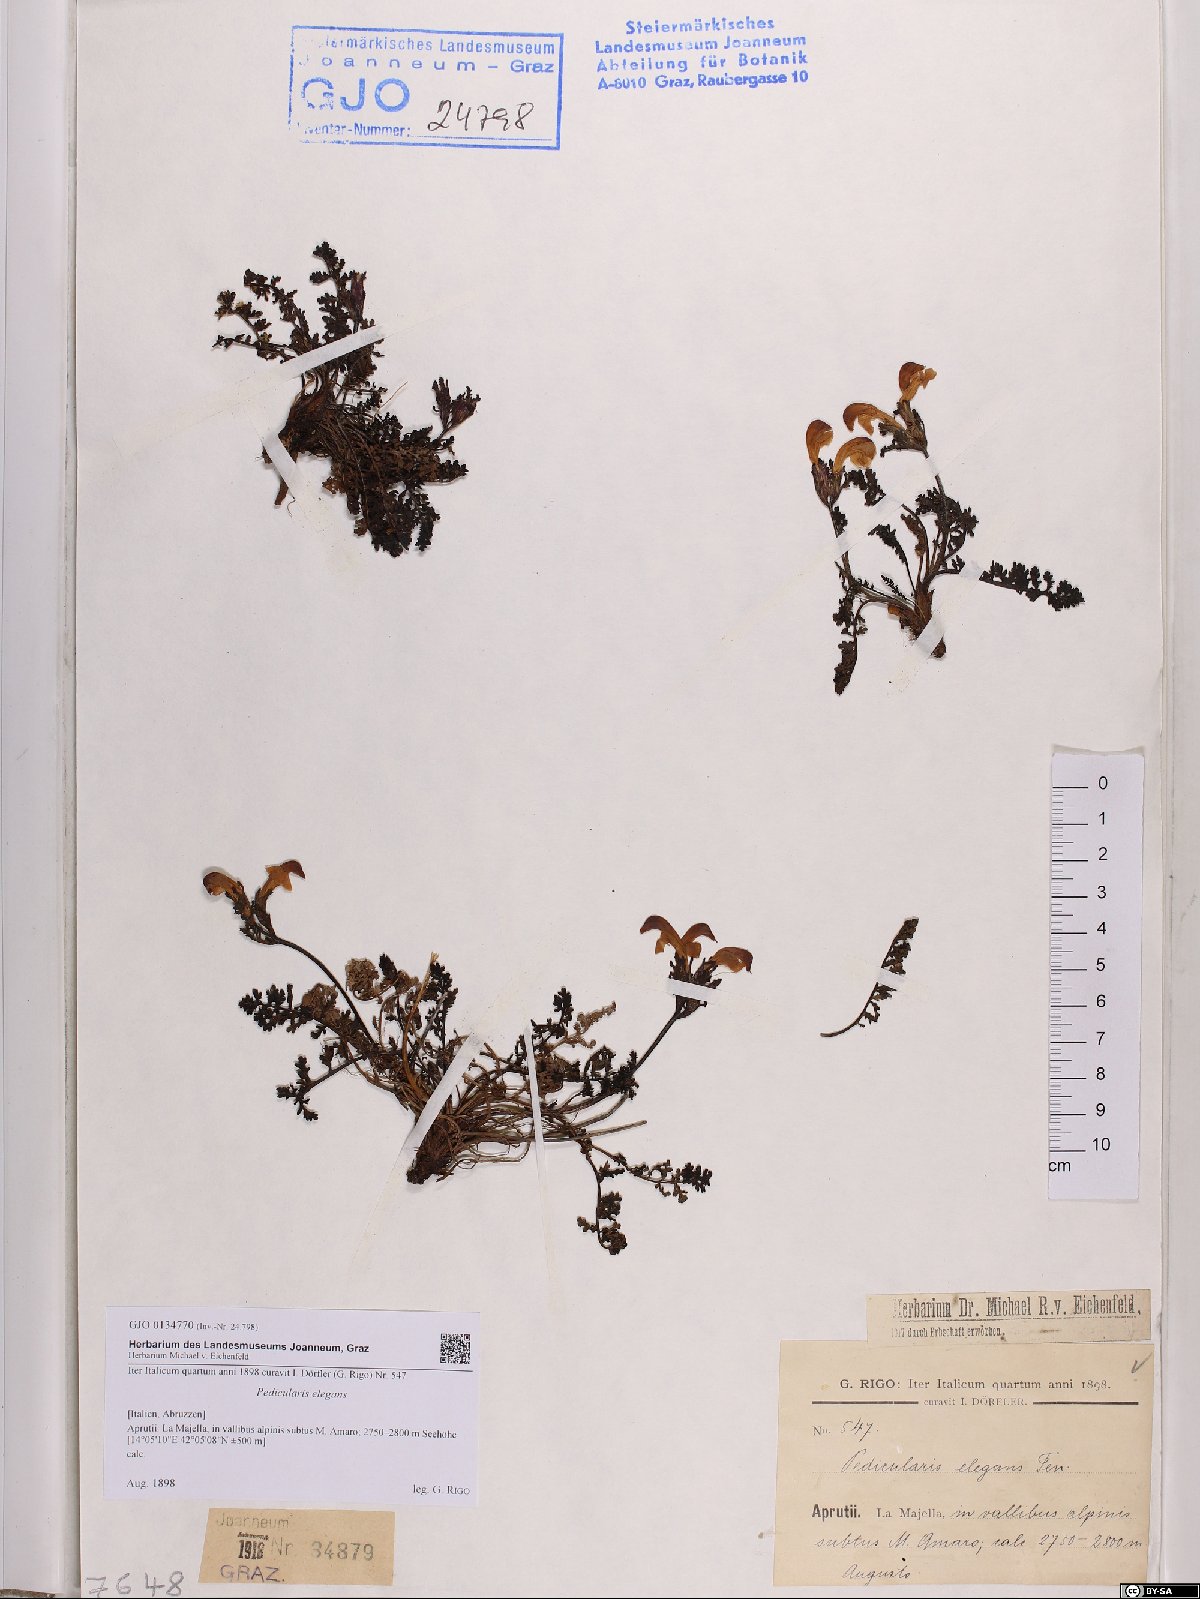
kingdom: Plantae
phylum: Tracheophyta
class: Magnoliopsida
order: Lamiales
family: Orobanchaceae
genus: Pedicularis
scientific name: Pedicularis elegans
